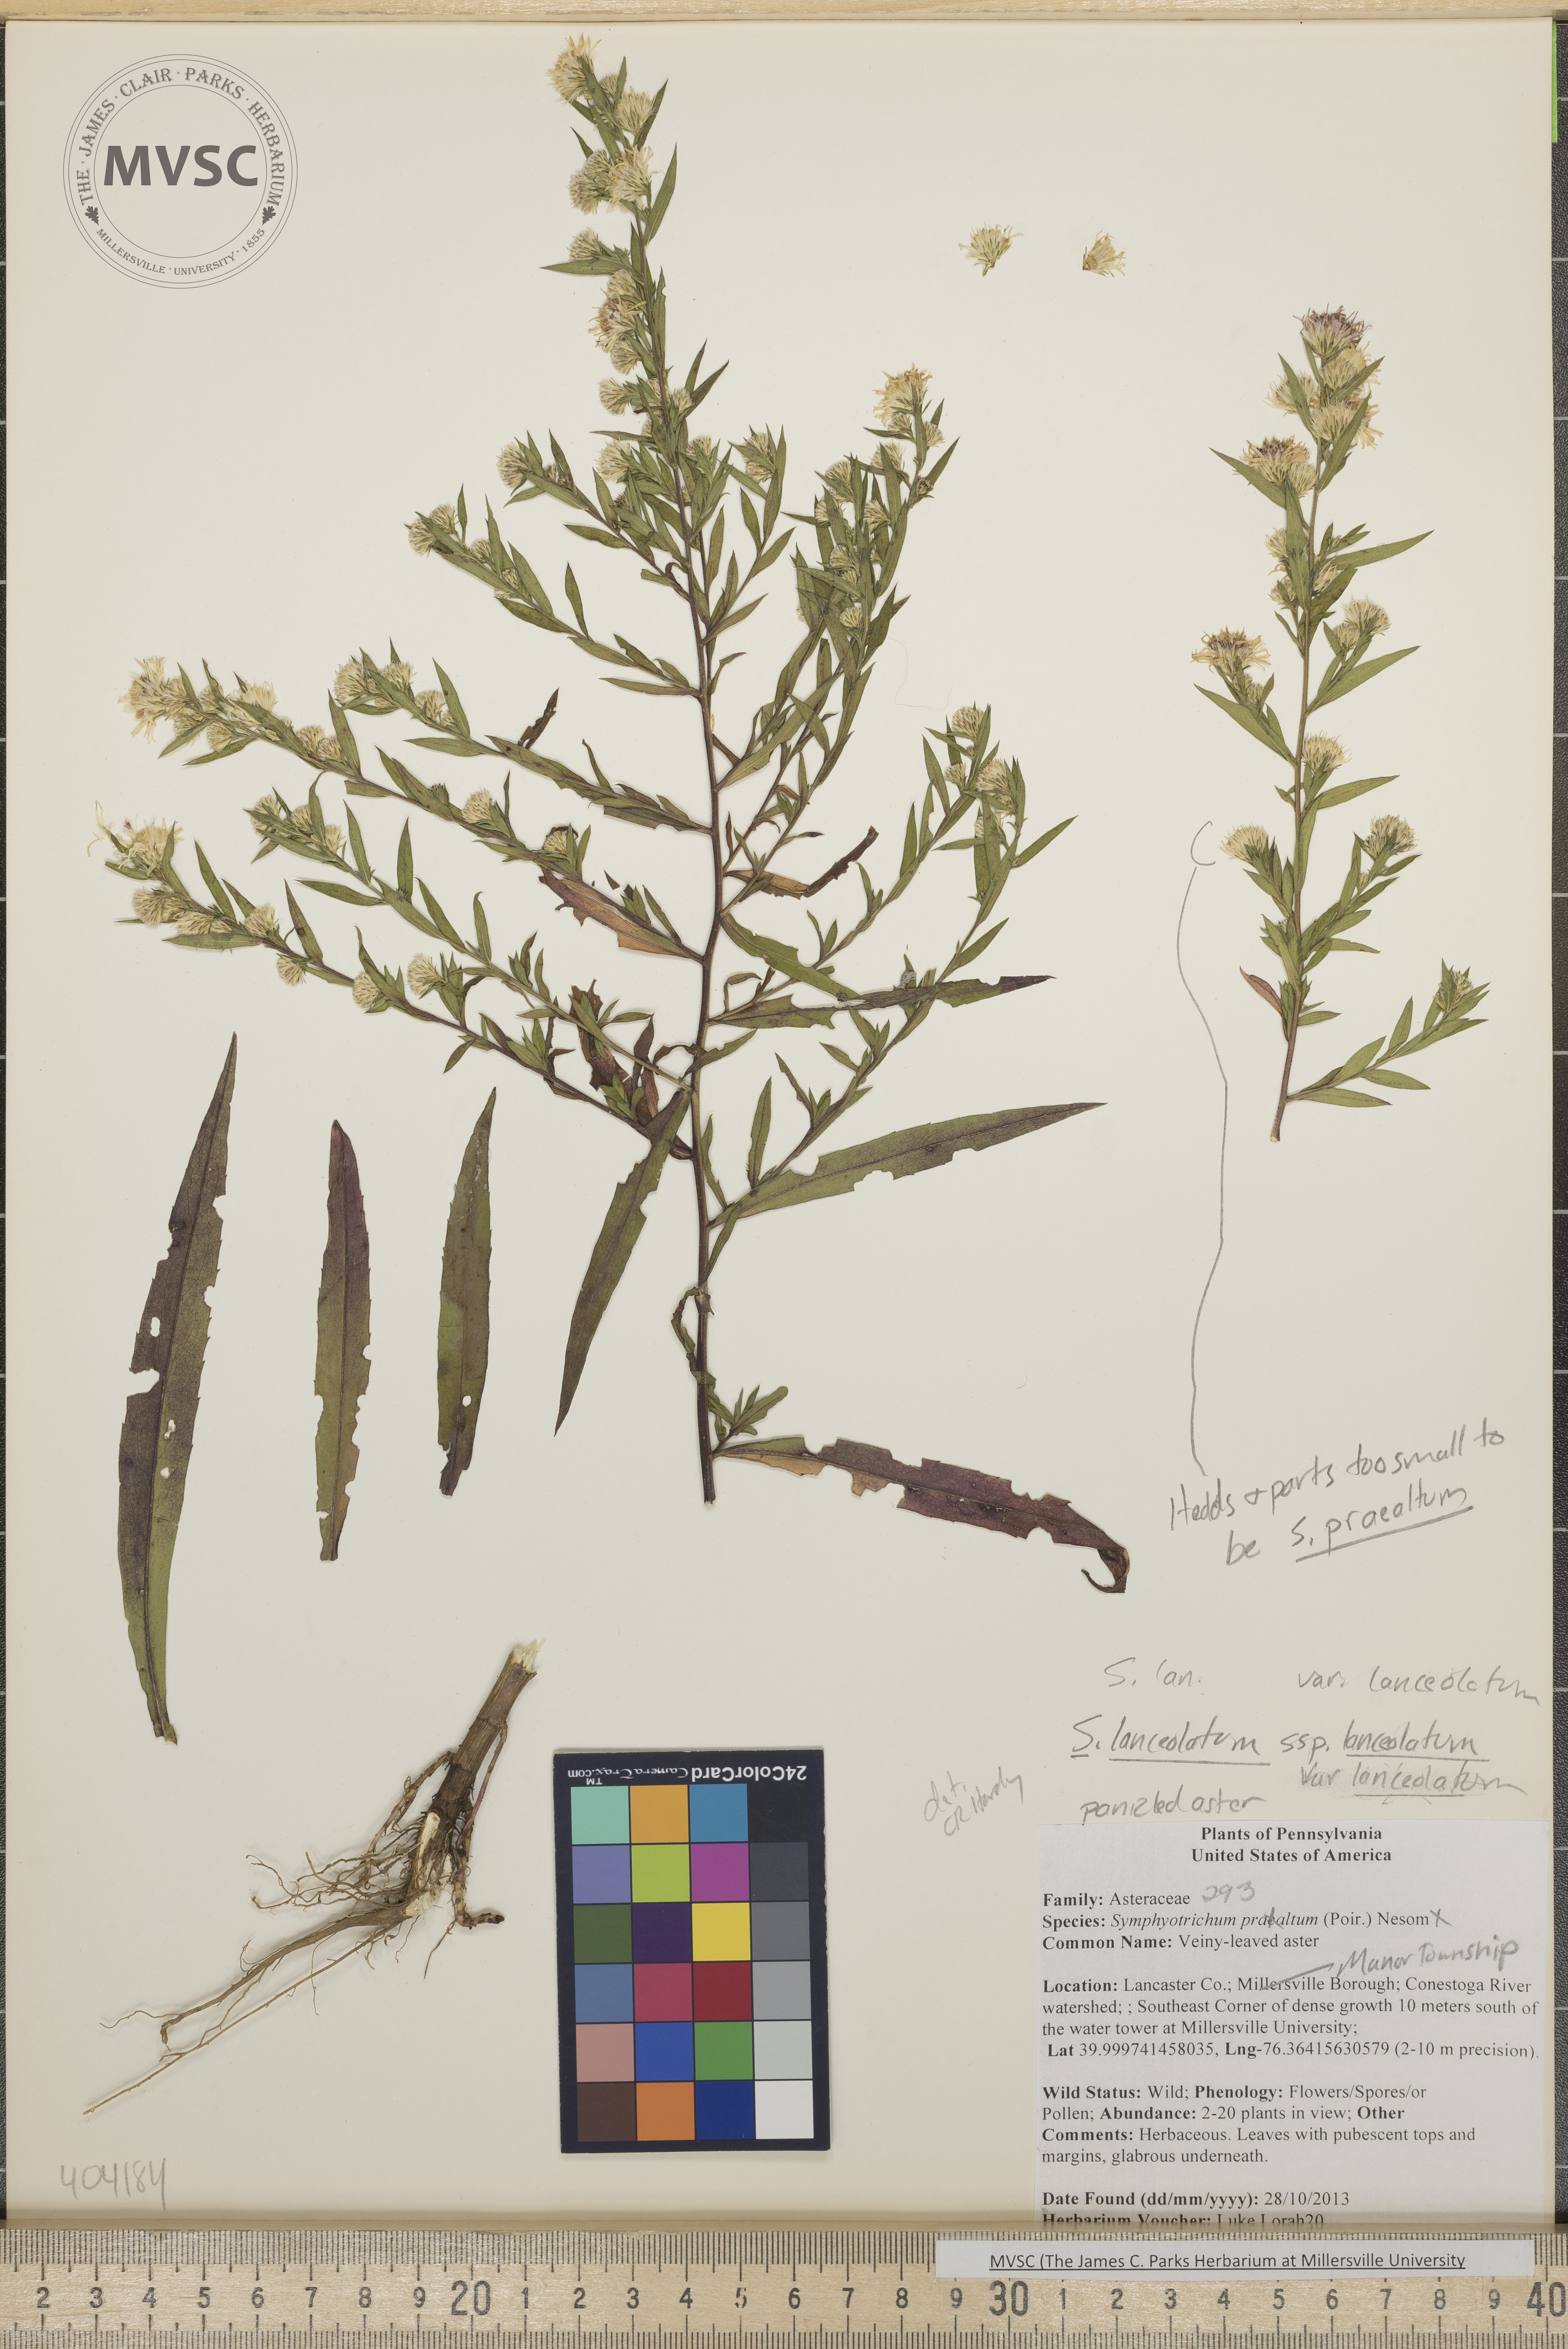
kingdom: Plantae
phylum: Tracheophyta
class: Magnoliopsida
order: Asterales
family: Asteraceae
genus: Symphyotrichum
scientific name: Symphyotrichum lanceolatum
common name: Panicled Aster
